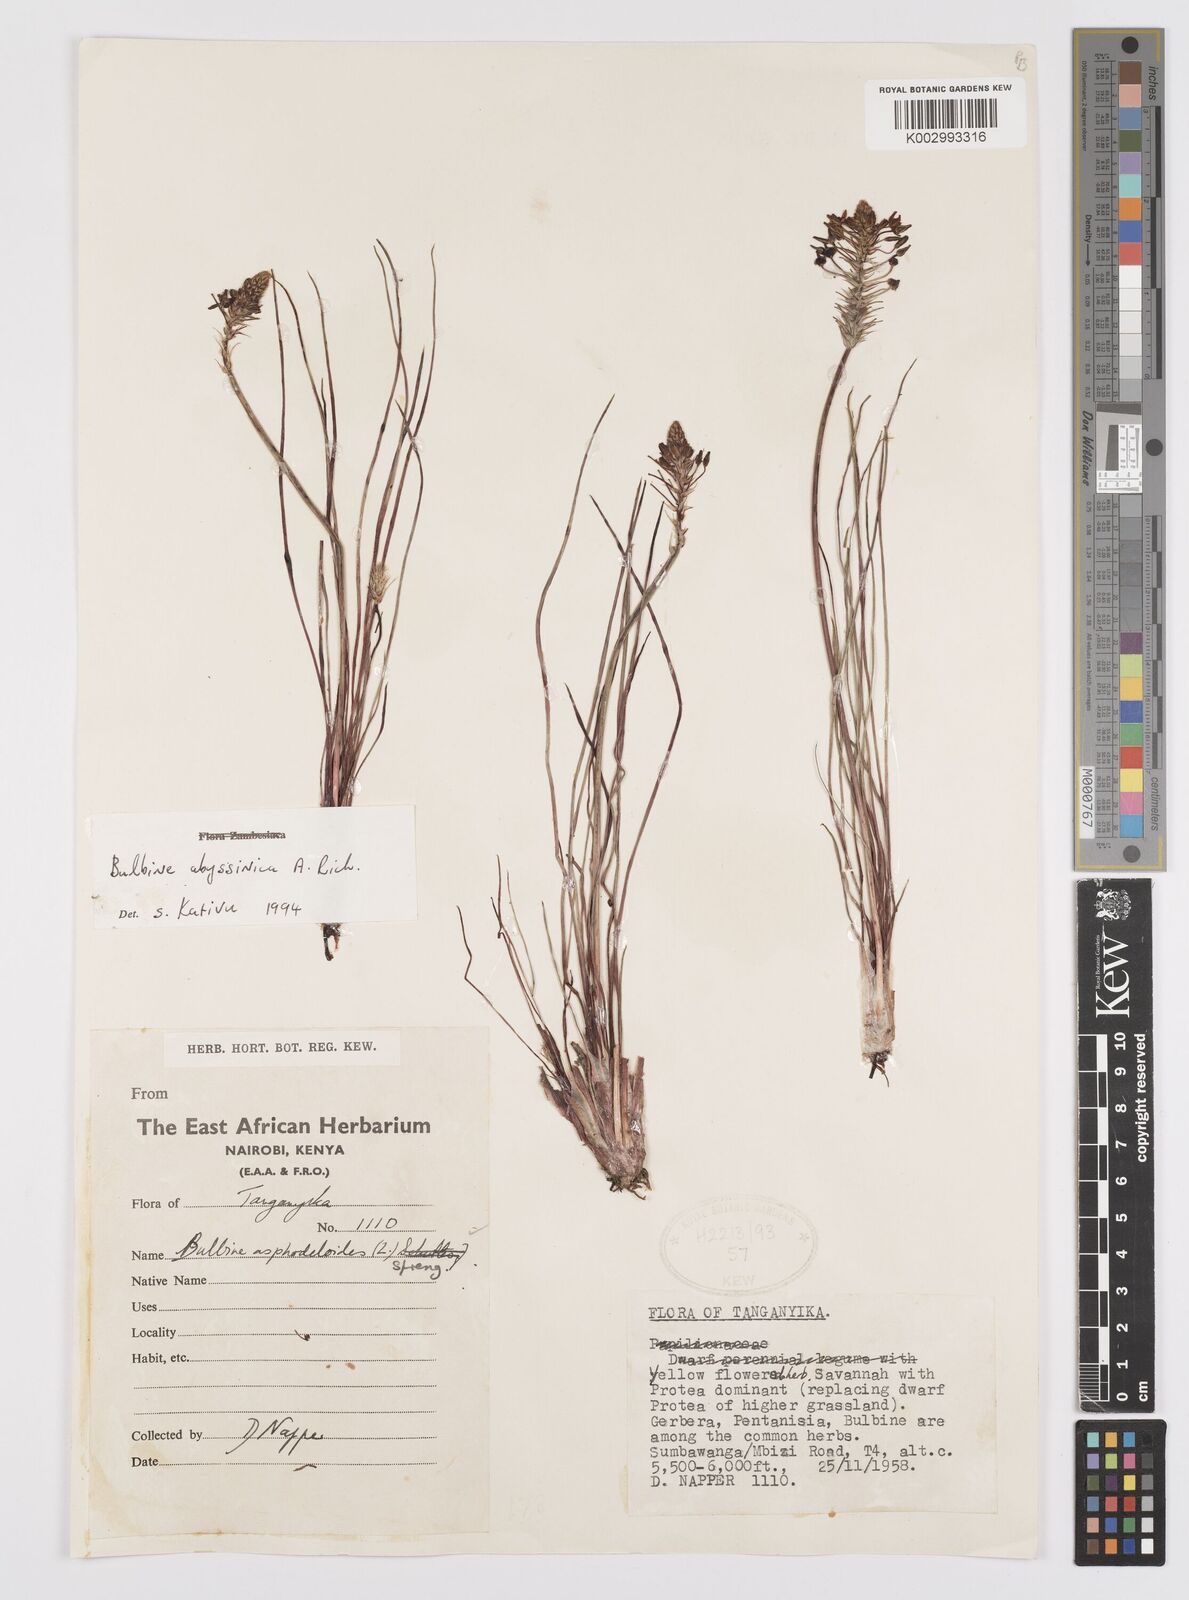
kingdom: Plantae
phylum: Tracheophyta
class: Liliopsida
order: Asparagales
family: Asphodelaceae
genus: Bulbine
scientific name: Bulbine abyssinica
